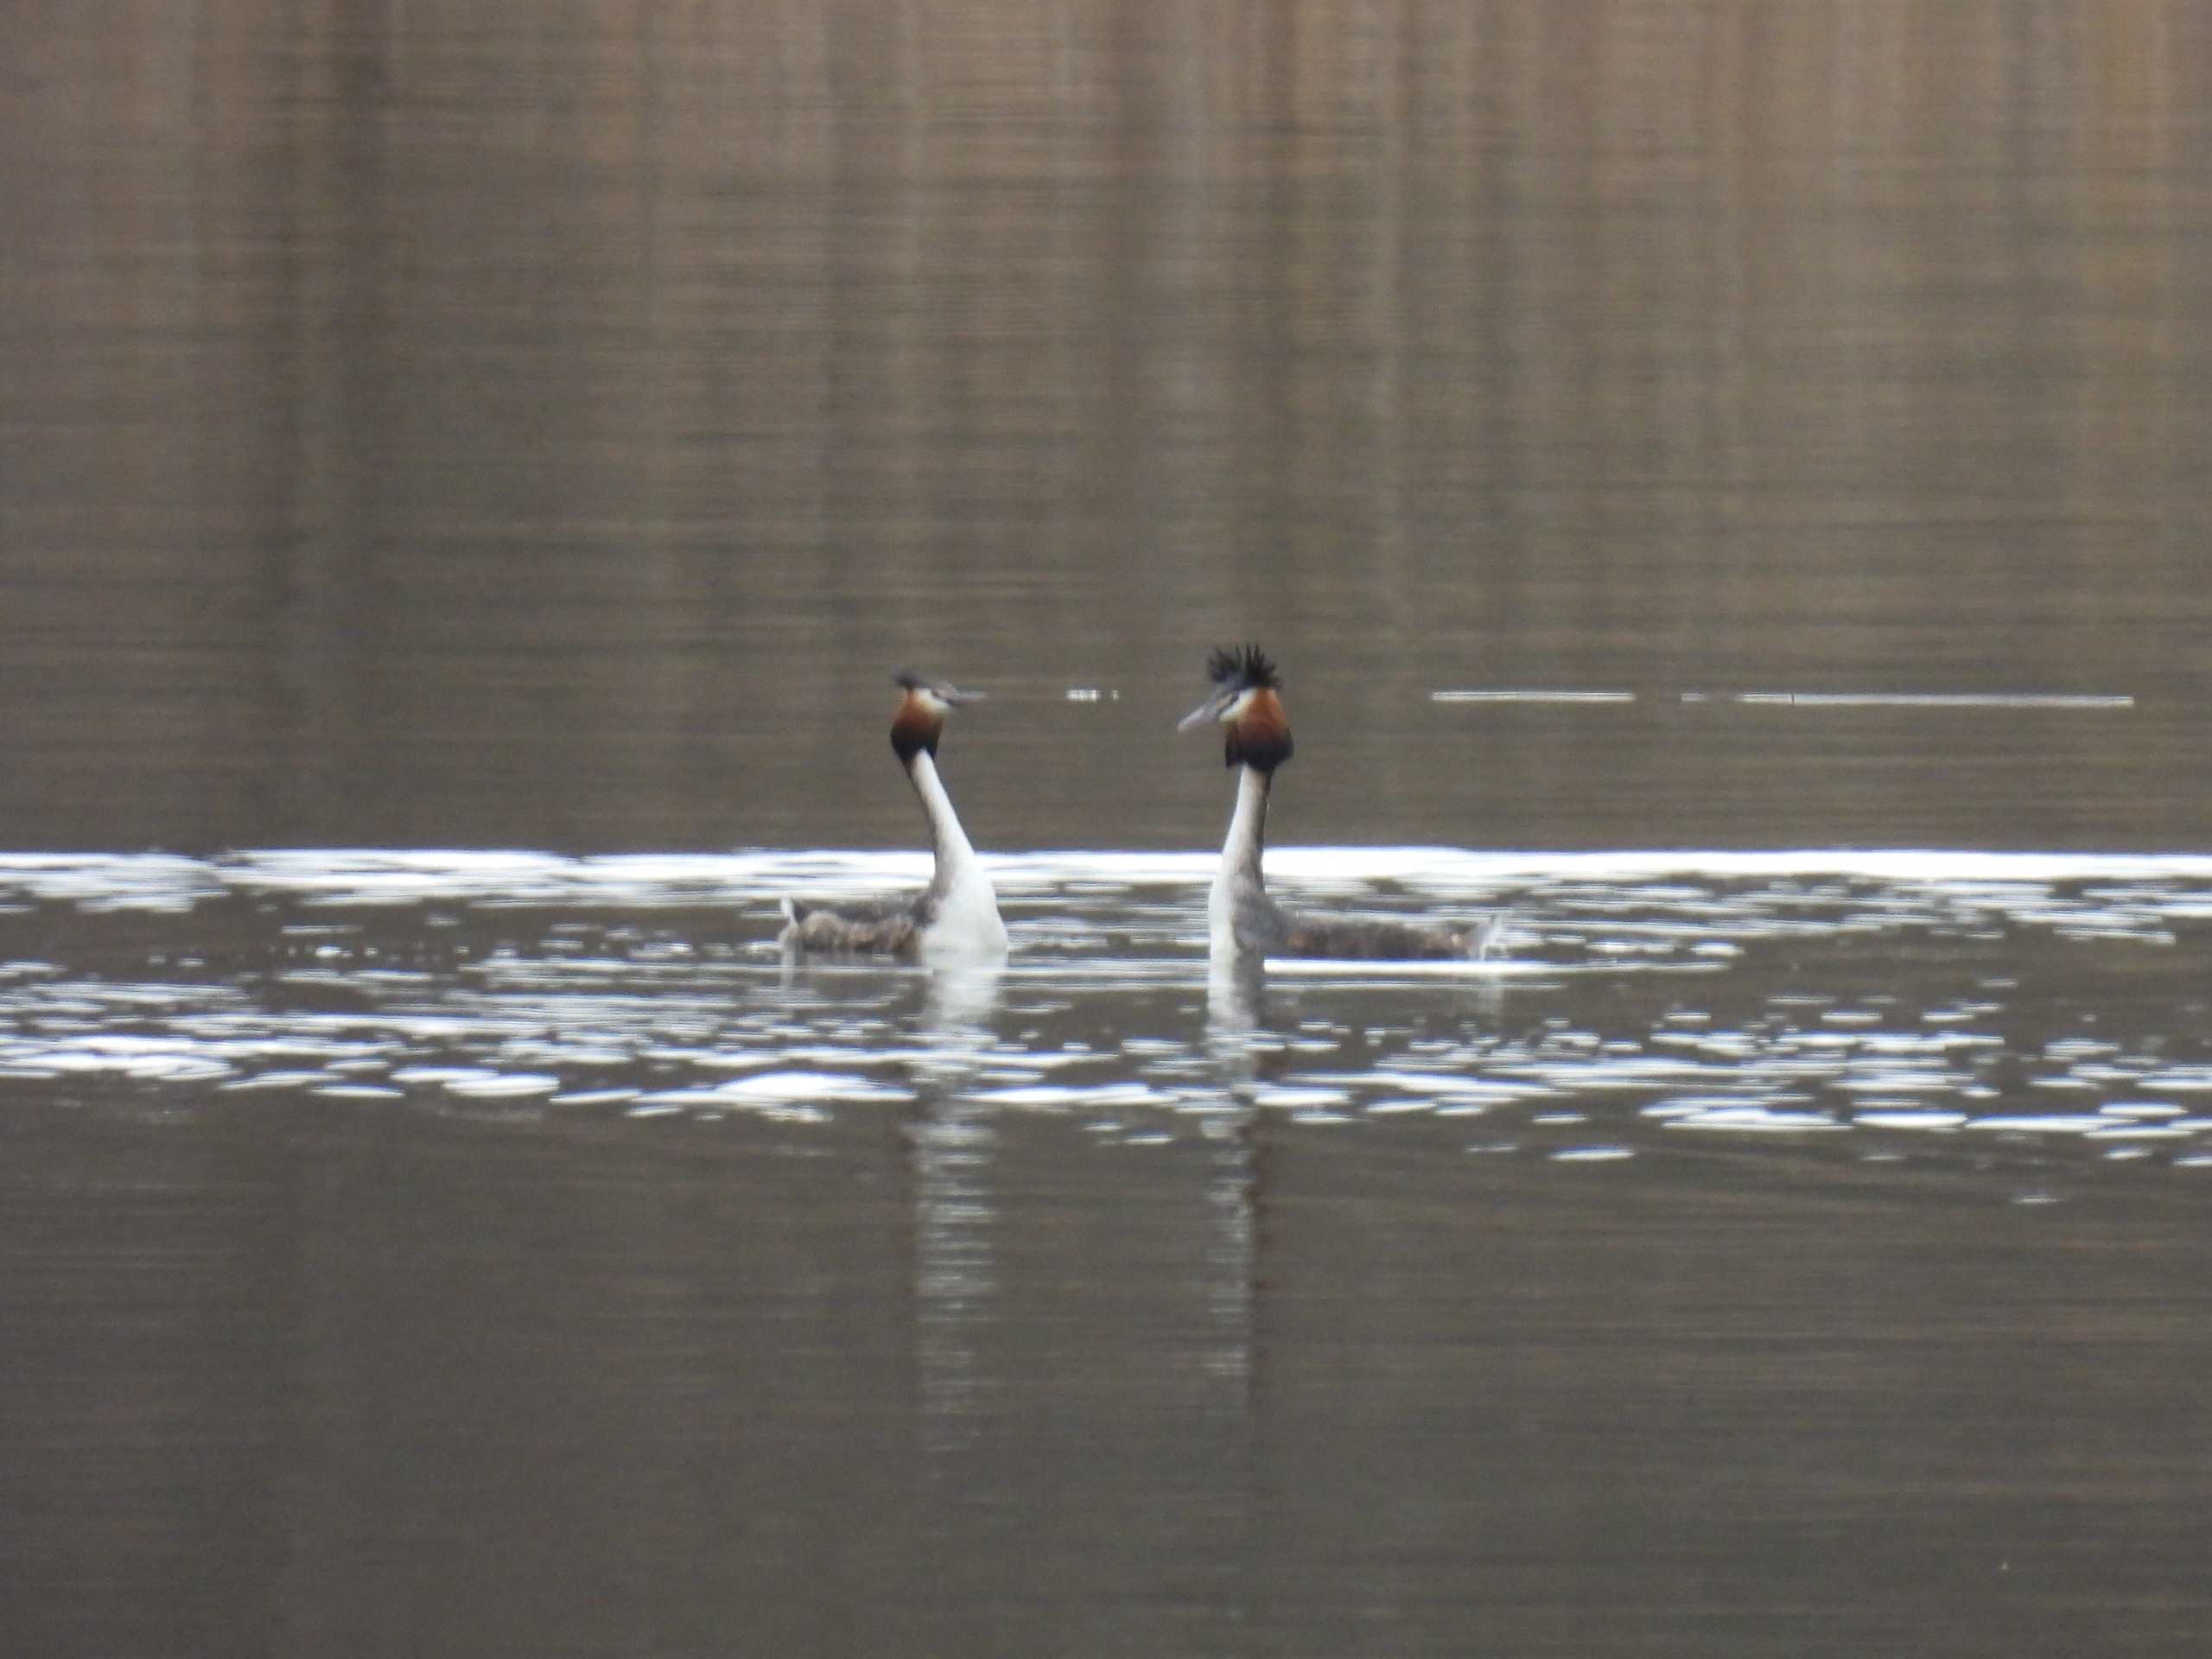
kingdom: Animalia
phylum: Chordata
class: Aves
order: Podicipediformes
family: Podicipedidae
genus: Podiceps
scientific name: Podiceps cristatus
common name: Toppet lappedykker
